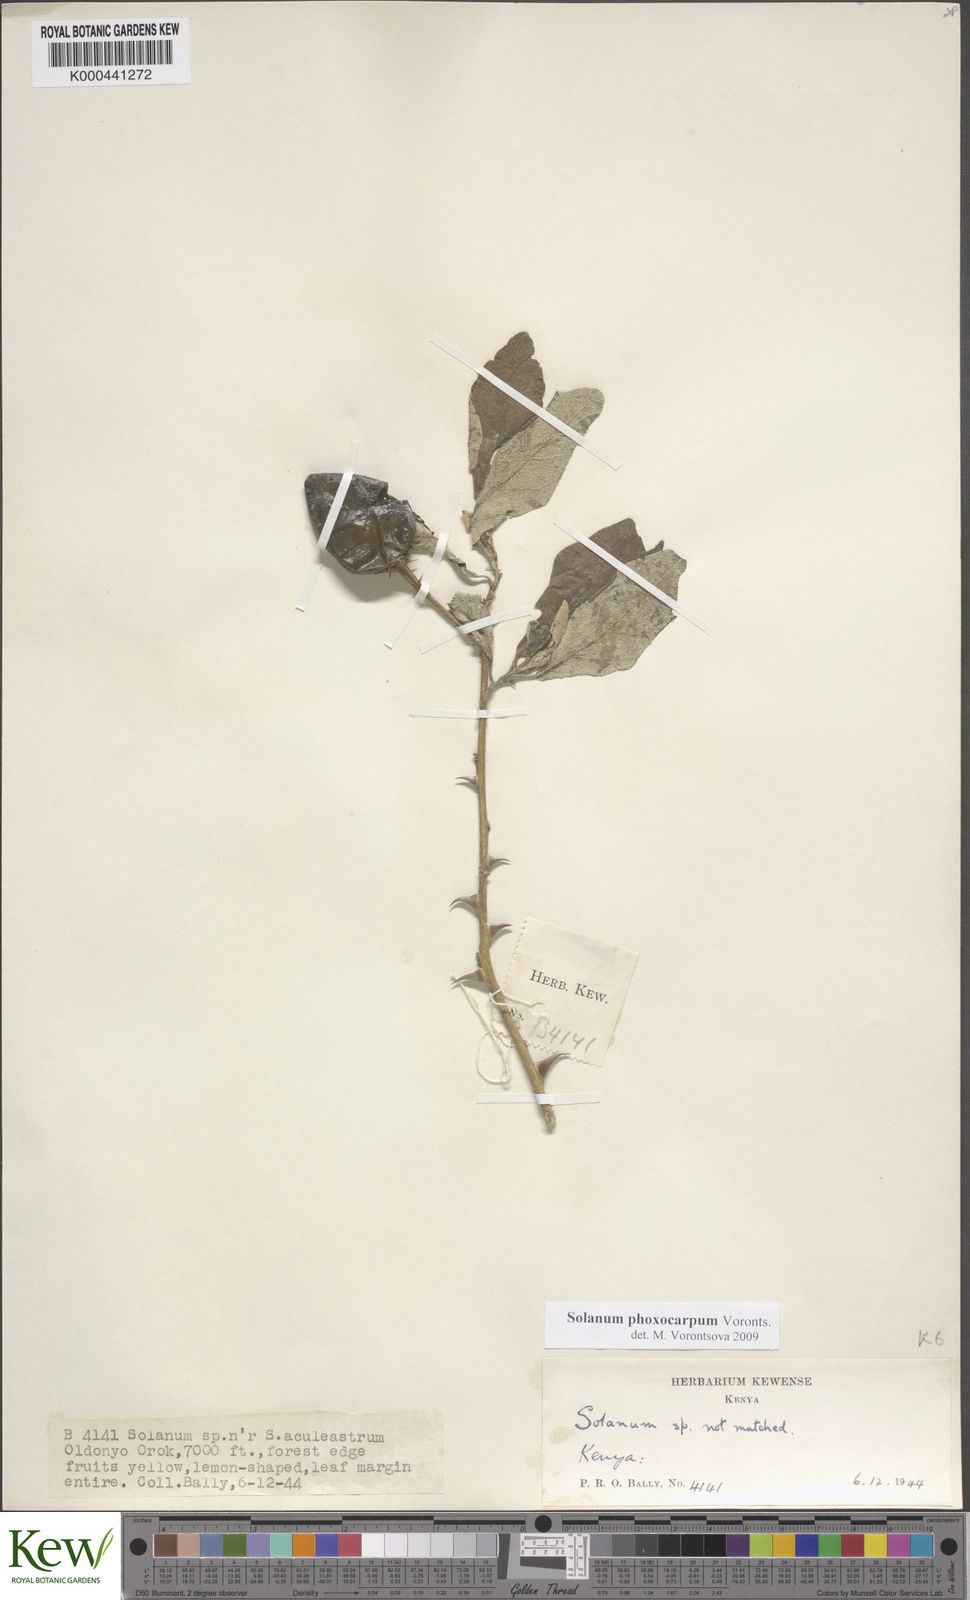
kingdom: Plantae
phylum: Tracheophyta
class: Magnoliopsida
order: Solanales
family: Solanaceae
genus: Solanum
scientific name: Solanum phoxocarpum
